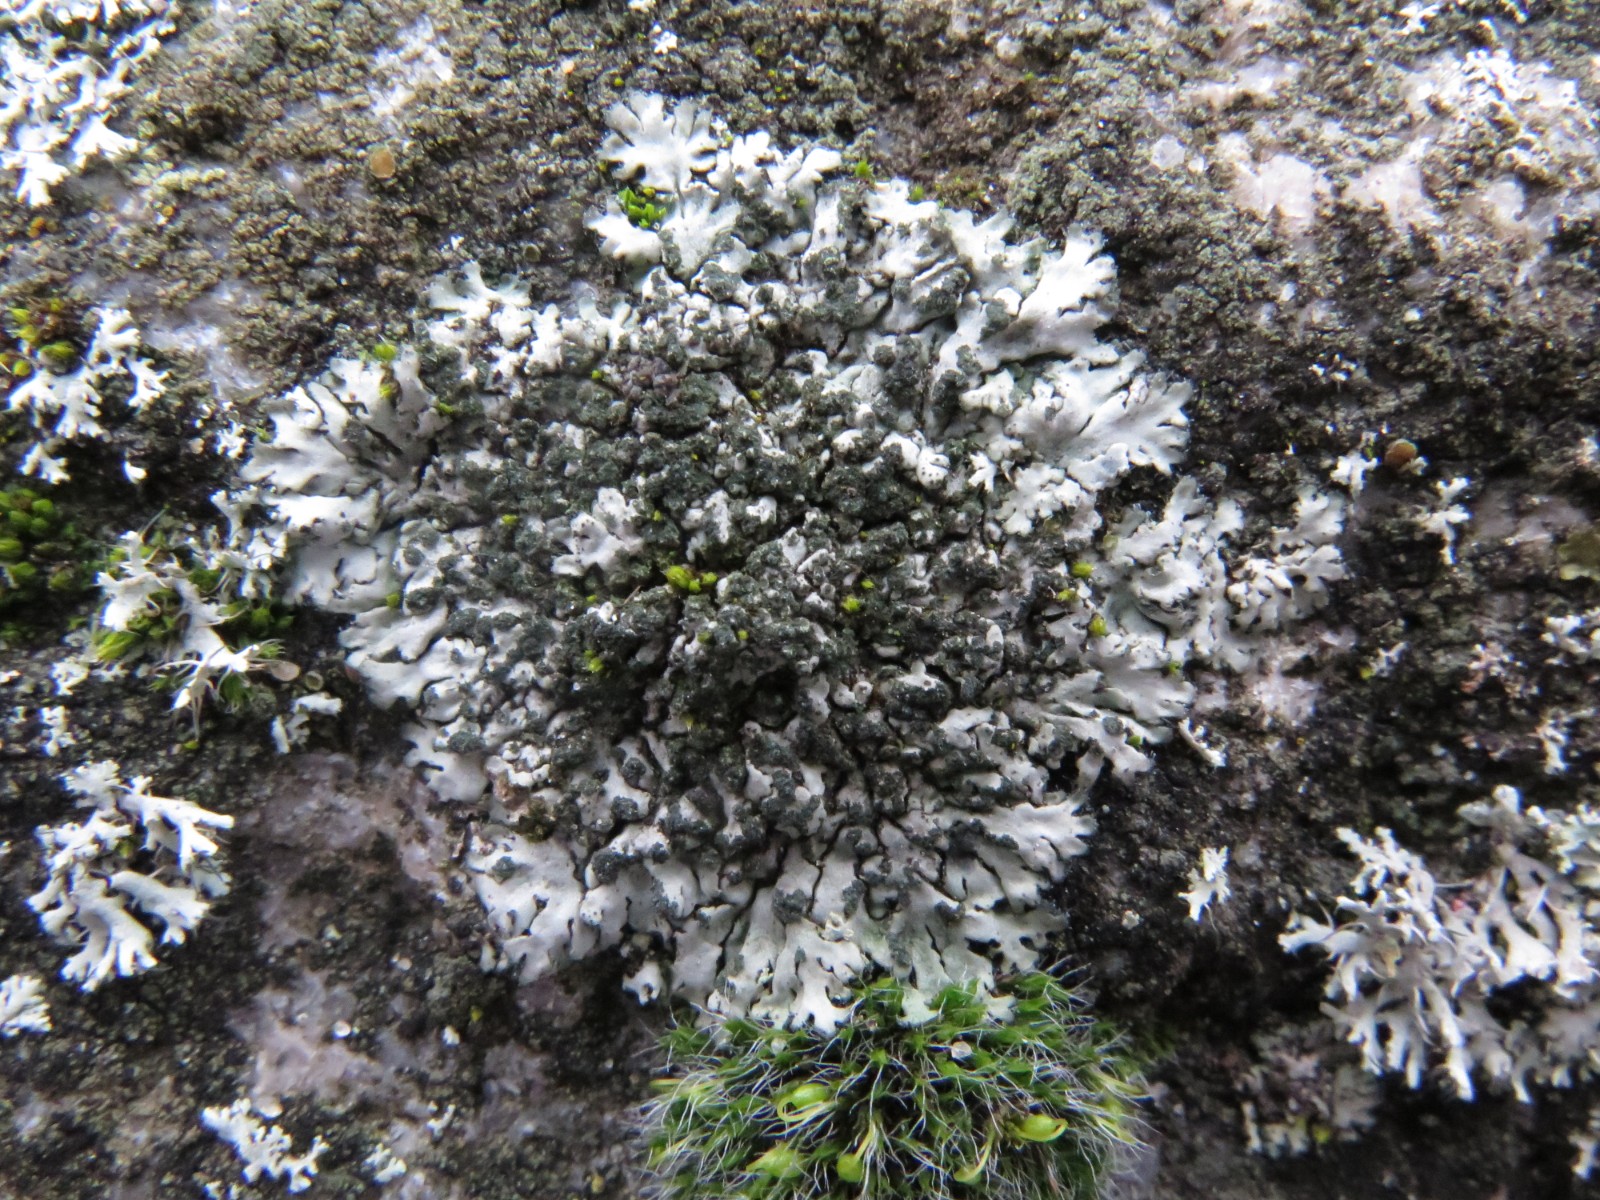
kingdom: Fungi
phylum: Ascomycota
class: Lecanoromycetes
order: Caliciales
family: Physciaceae
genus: Phaeophyscia
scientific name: Phaeophyscia orbicularis
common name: grågrøn rosetlav
